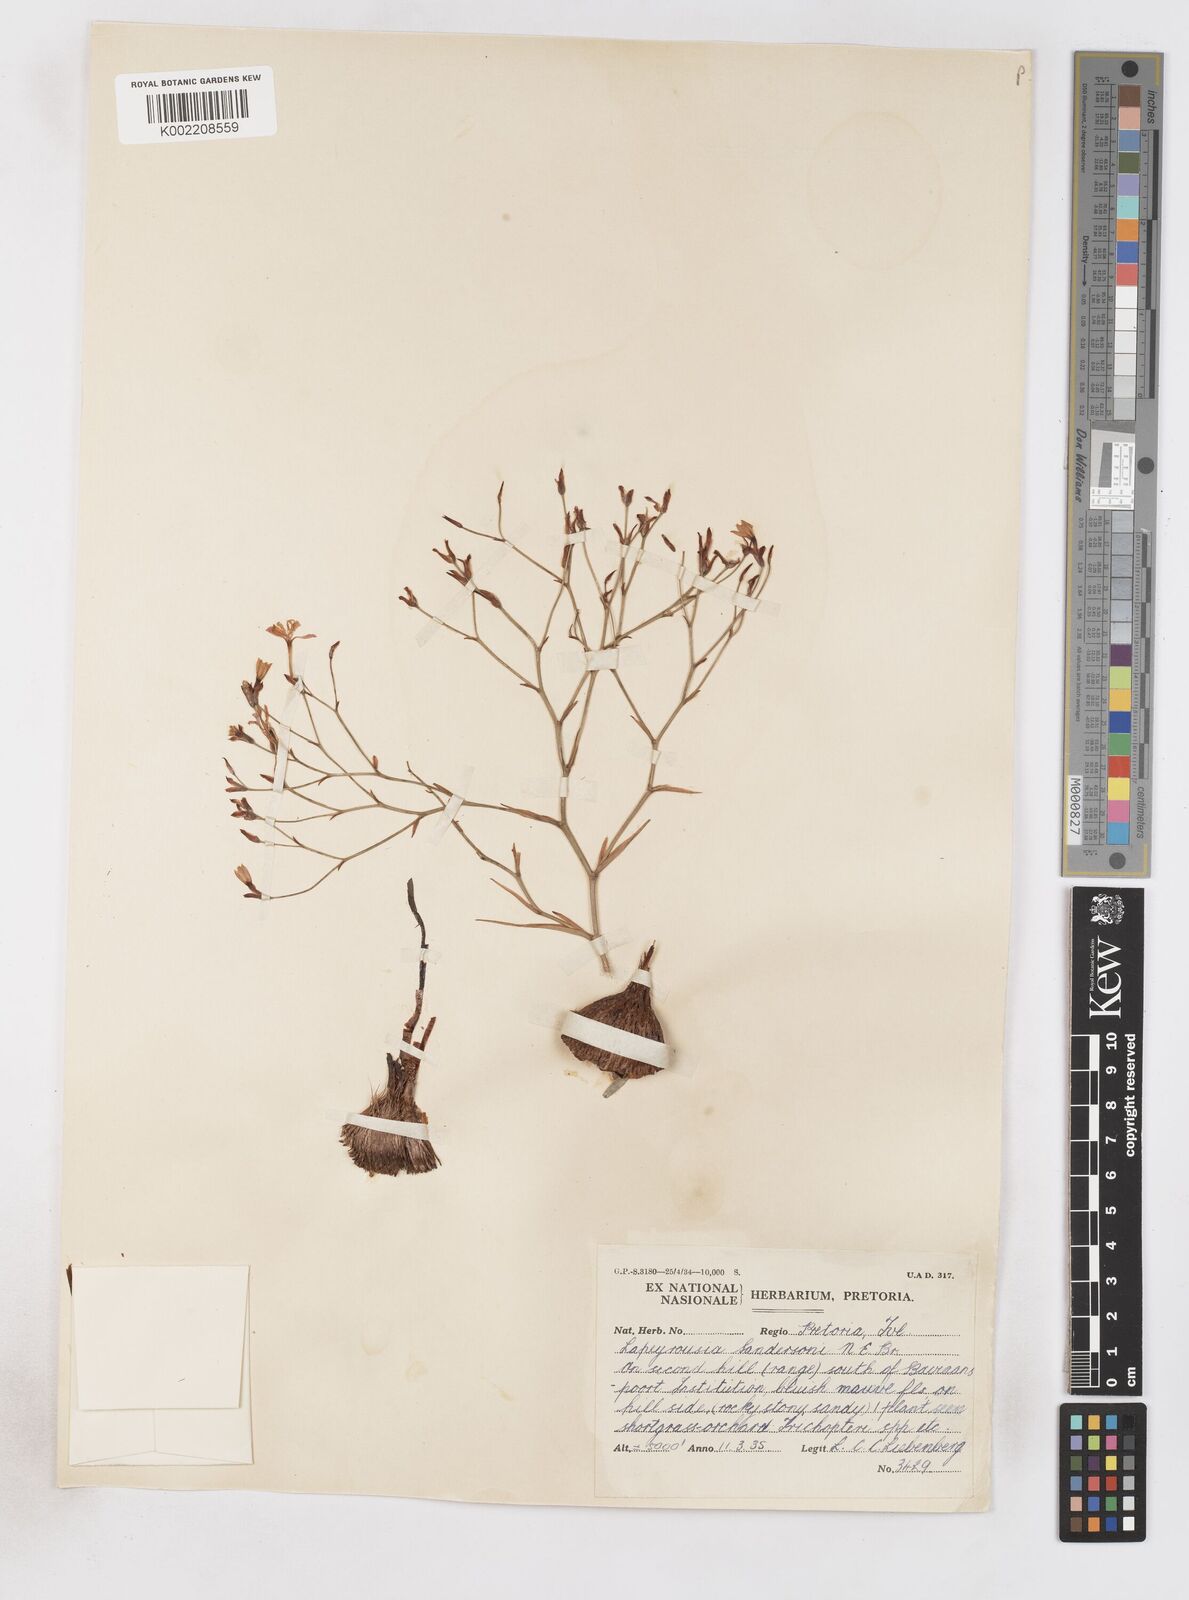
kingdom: Plantae
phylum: Tracheophyta
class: Liliopsida
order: Asparagales
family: Iridaceae
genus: Afrosolen
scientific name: Afrosolen sandersonii
